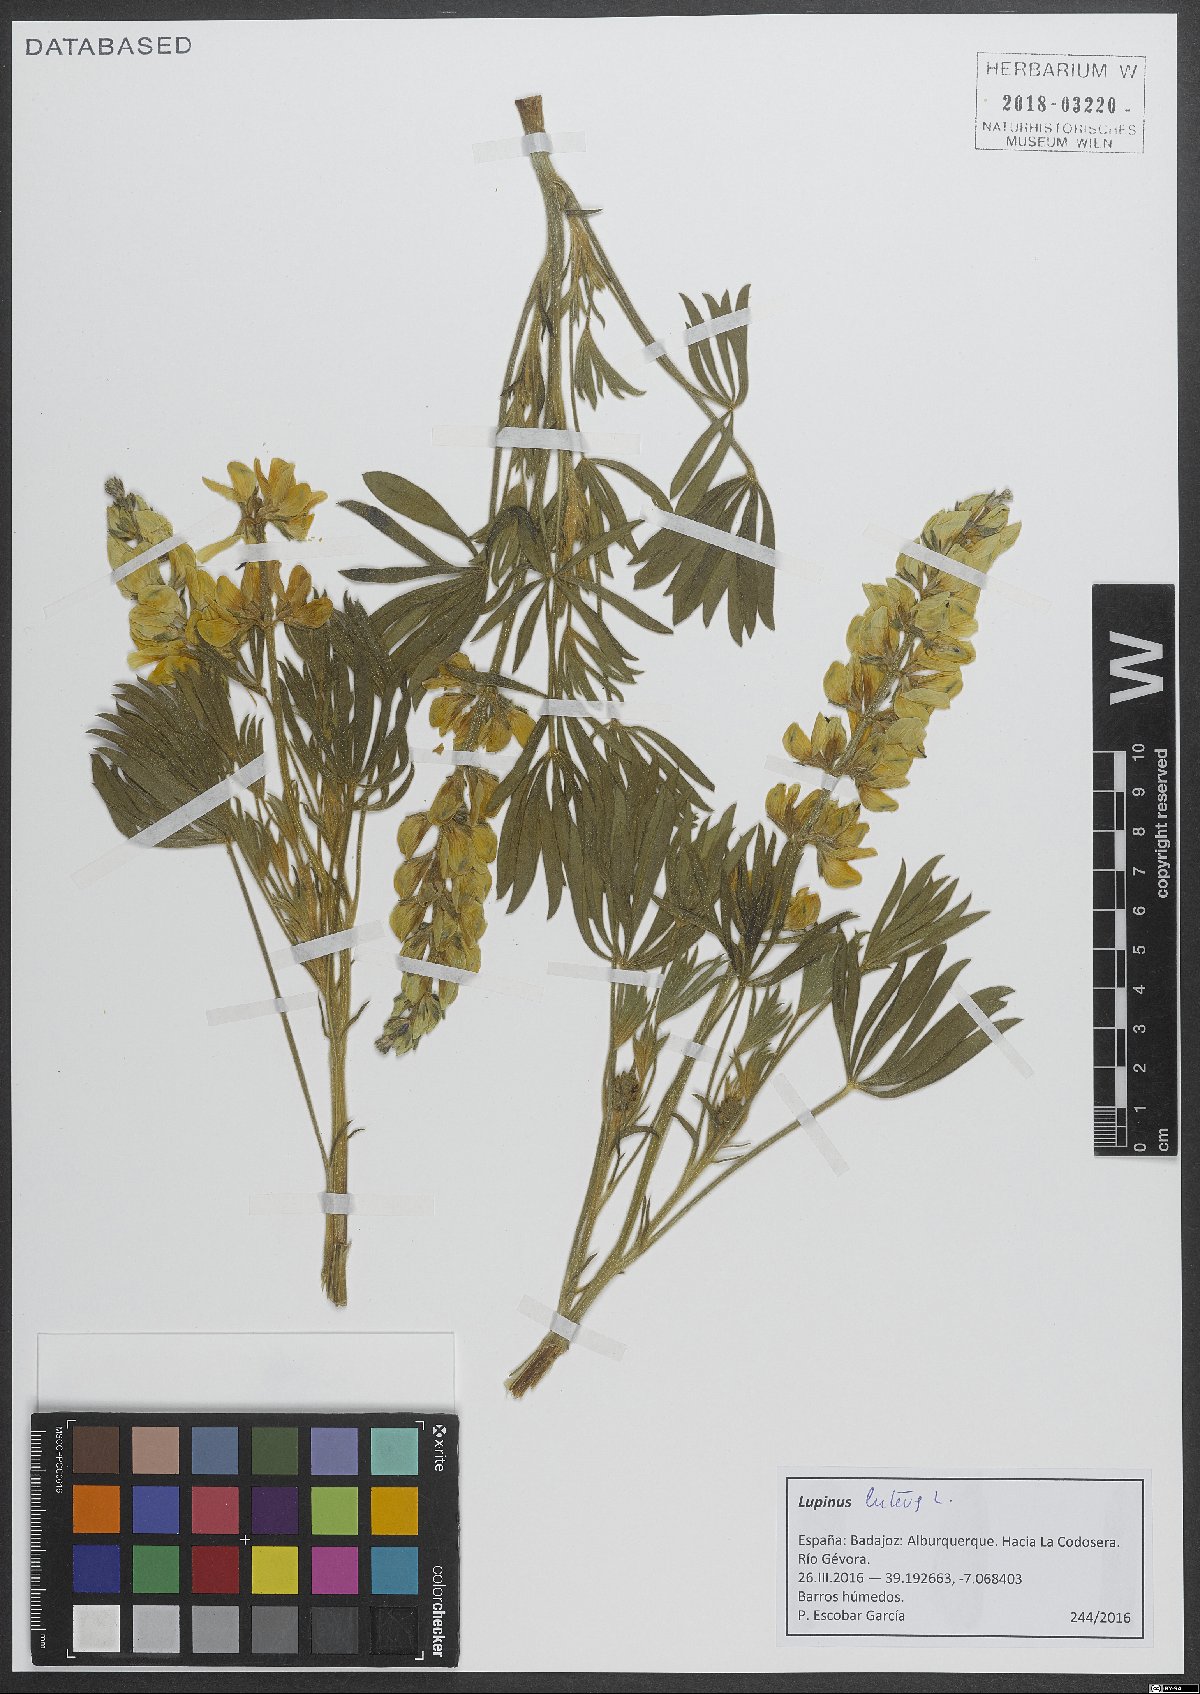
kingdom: Plantae
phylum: Tracheophyta
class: Magnoliopsida
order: Fabales
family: Fabaceae
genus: Lupinus
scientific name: Lupinus luteus
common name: European yellow lupine
